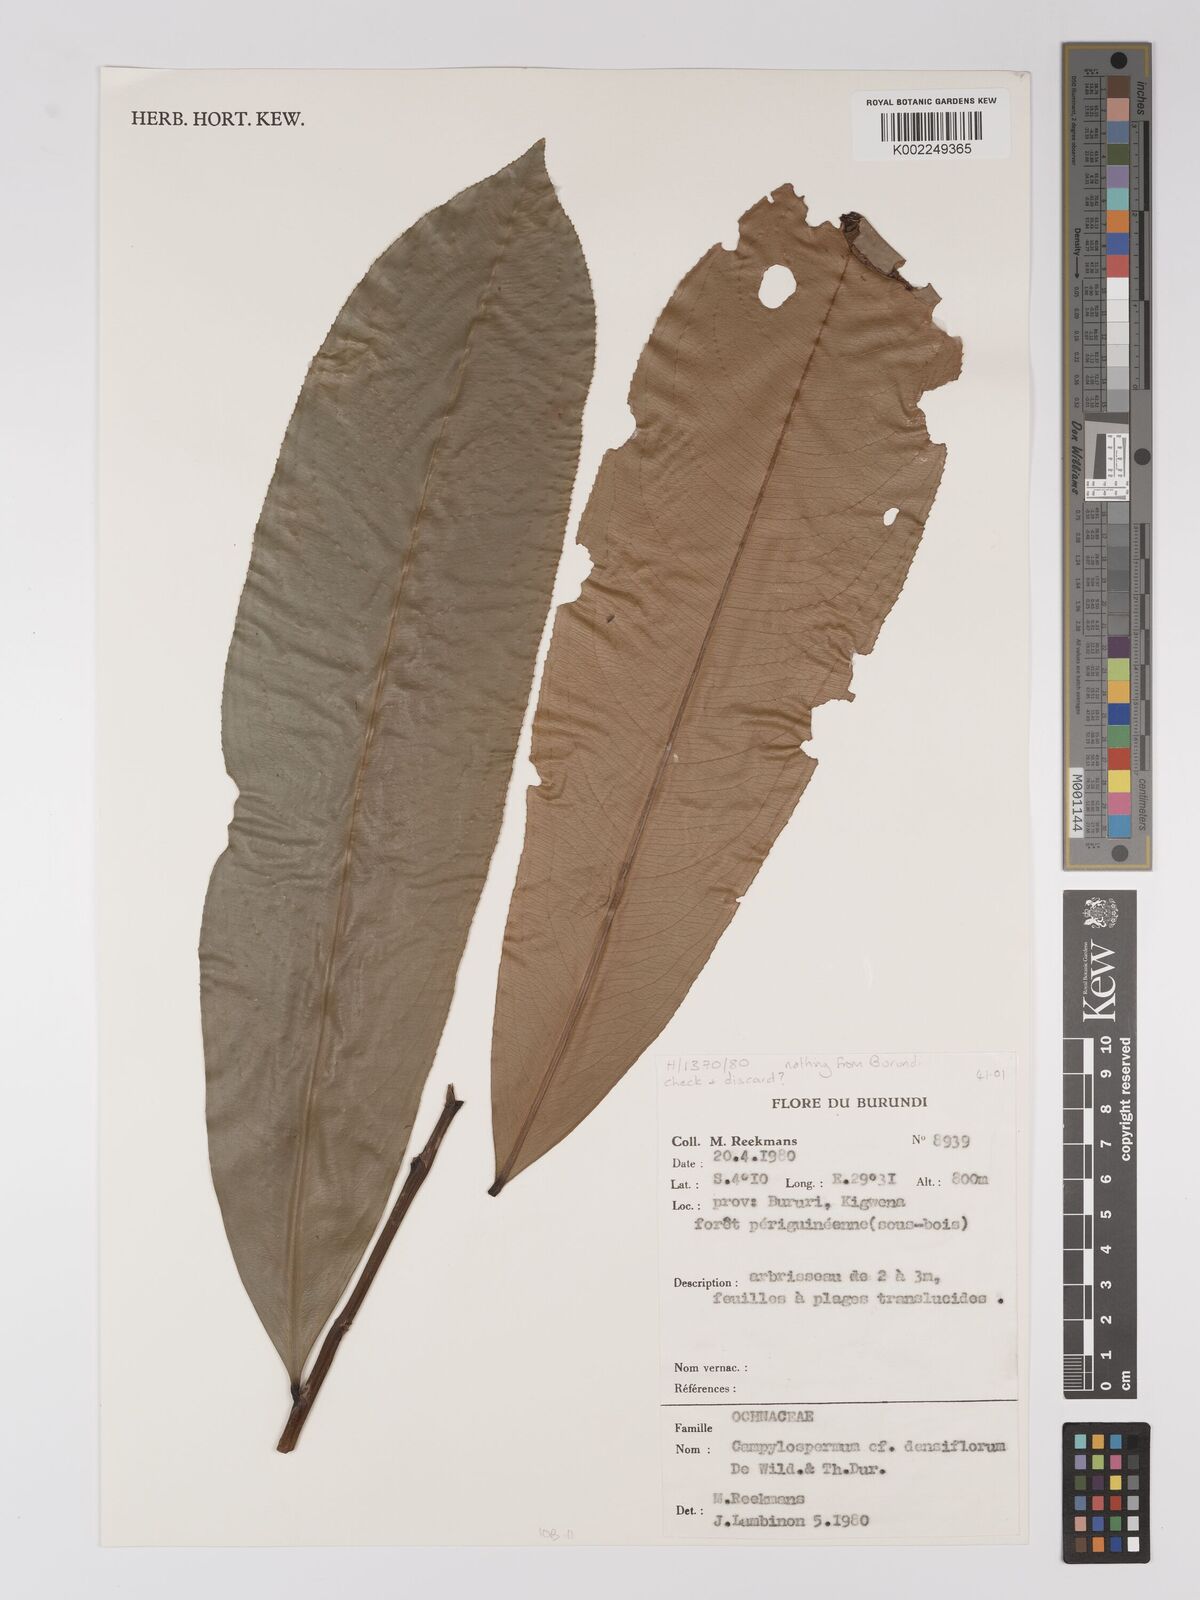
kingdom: Plantae
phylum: Tracheophyta
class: Magnoliopsida
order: Malpighiales
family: Ochnaceae
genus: Gomphia
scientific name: Gomphia densiflora
